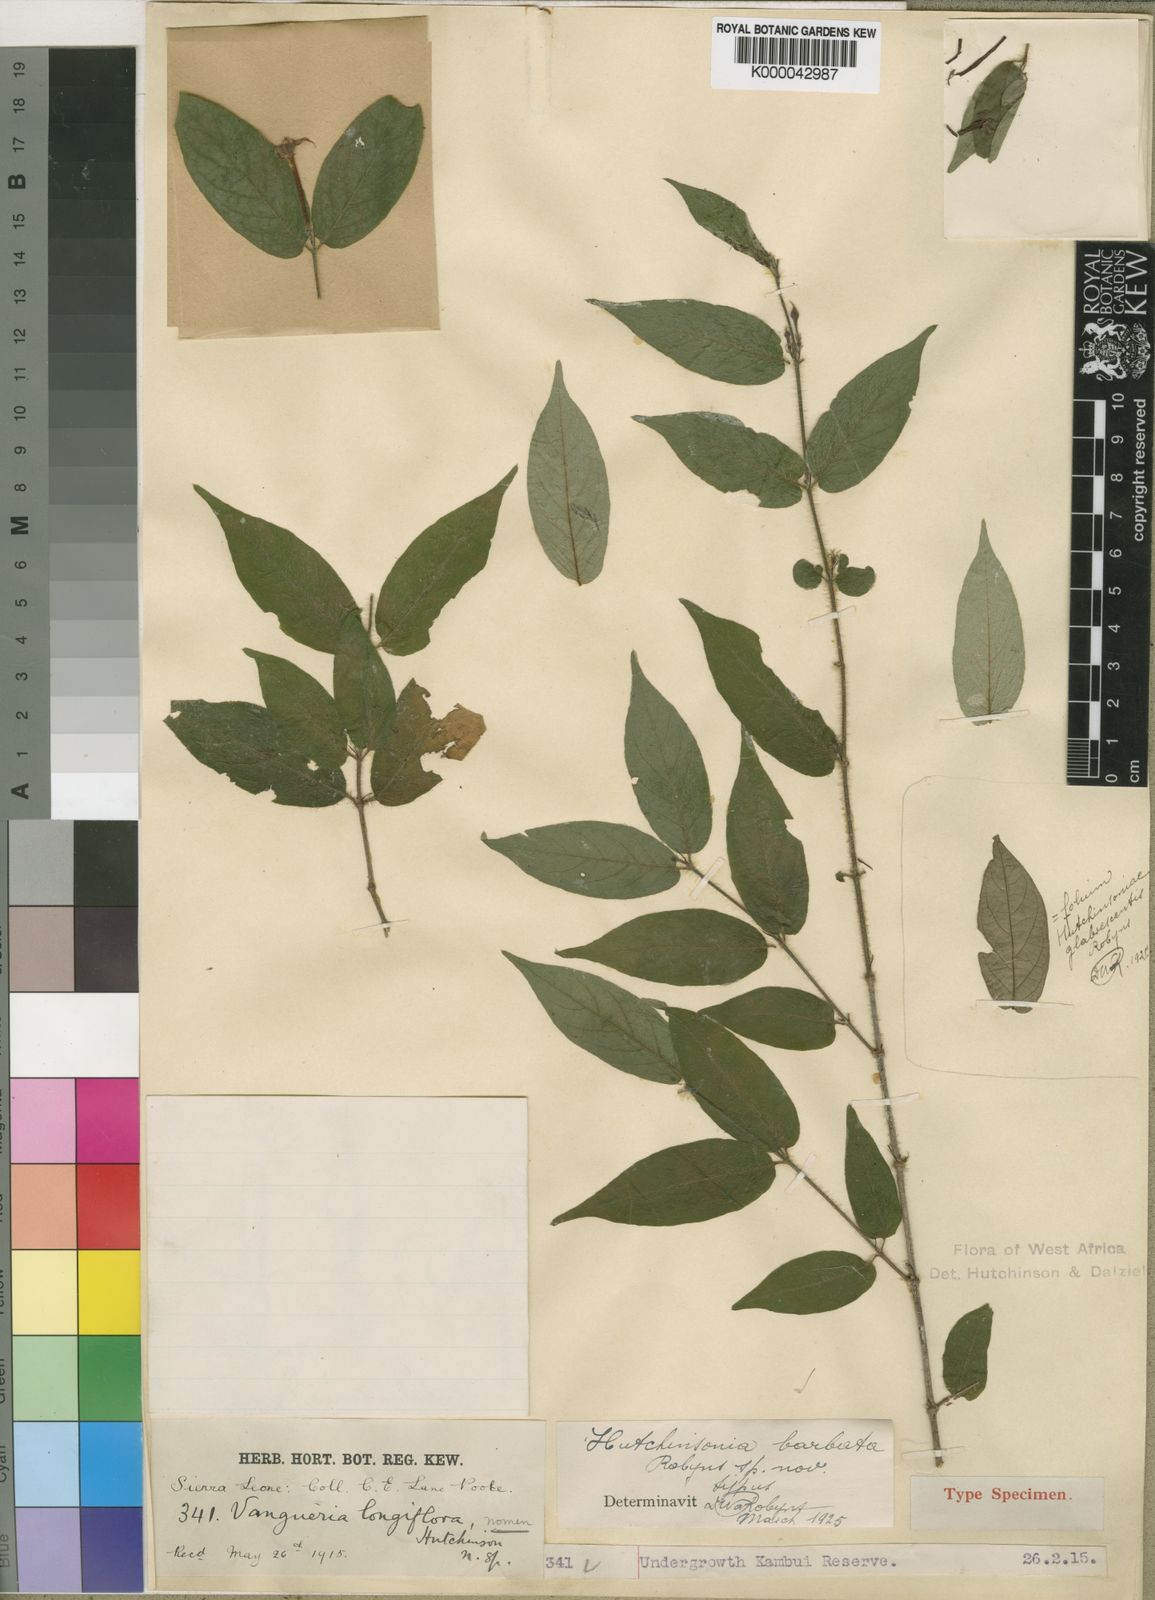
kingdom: Plantae
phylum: Tracheophyta
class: Magnoliopsida
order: Gentianales
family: Rubiaceae
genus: Hutchinsonia
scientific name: Hutchinsonia barbata
